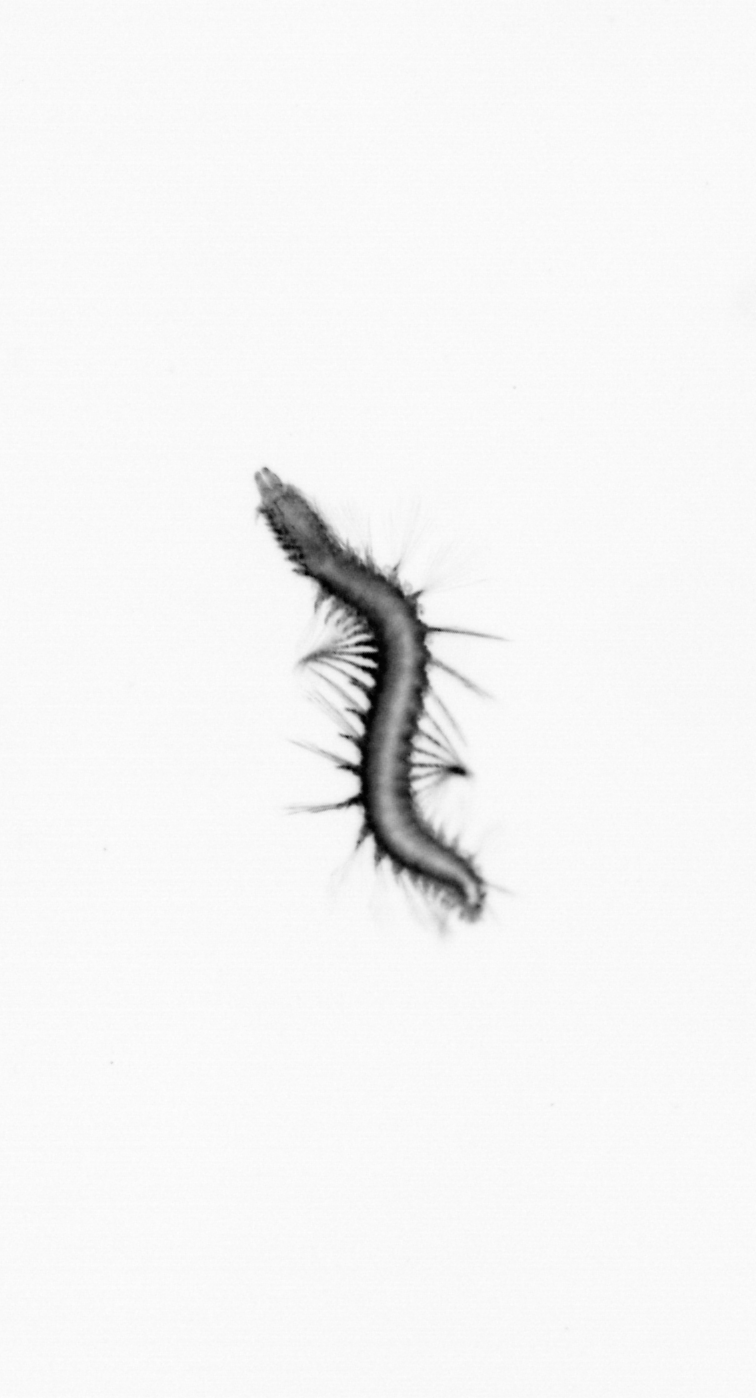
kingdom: Animalia
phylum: Annelida
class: Polychaeta
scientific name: Polychaeta
